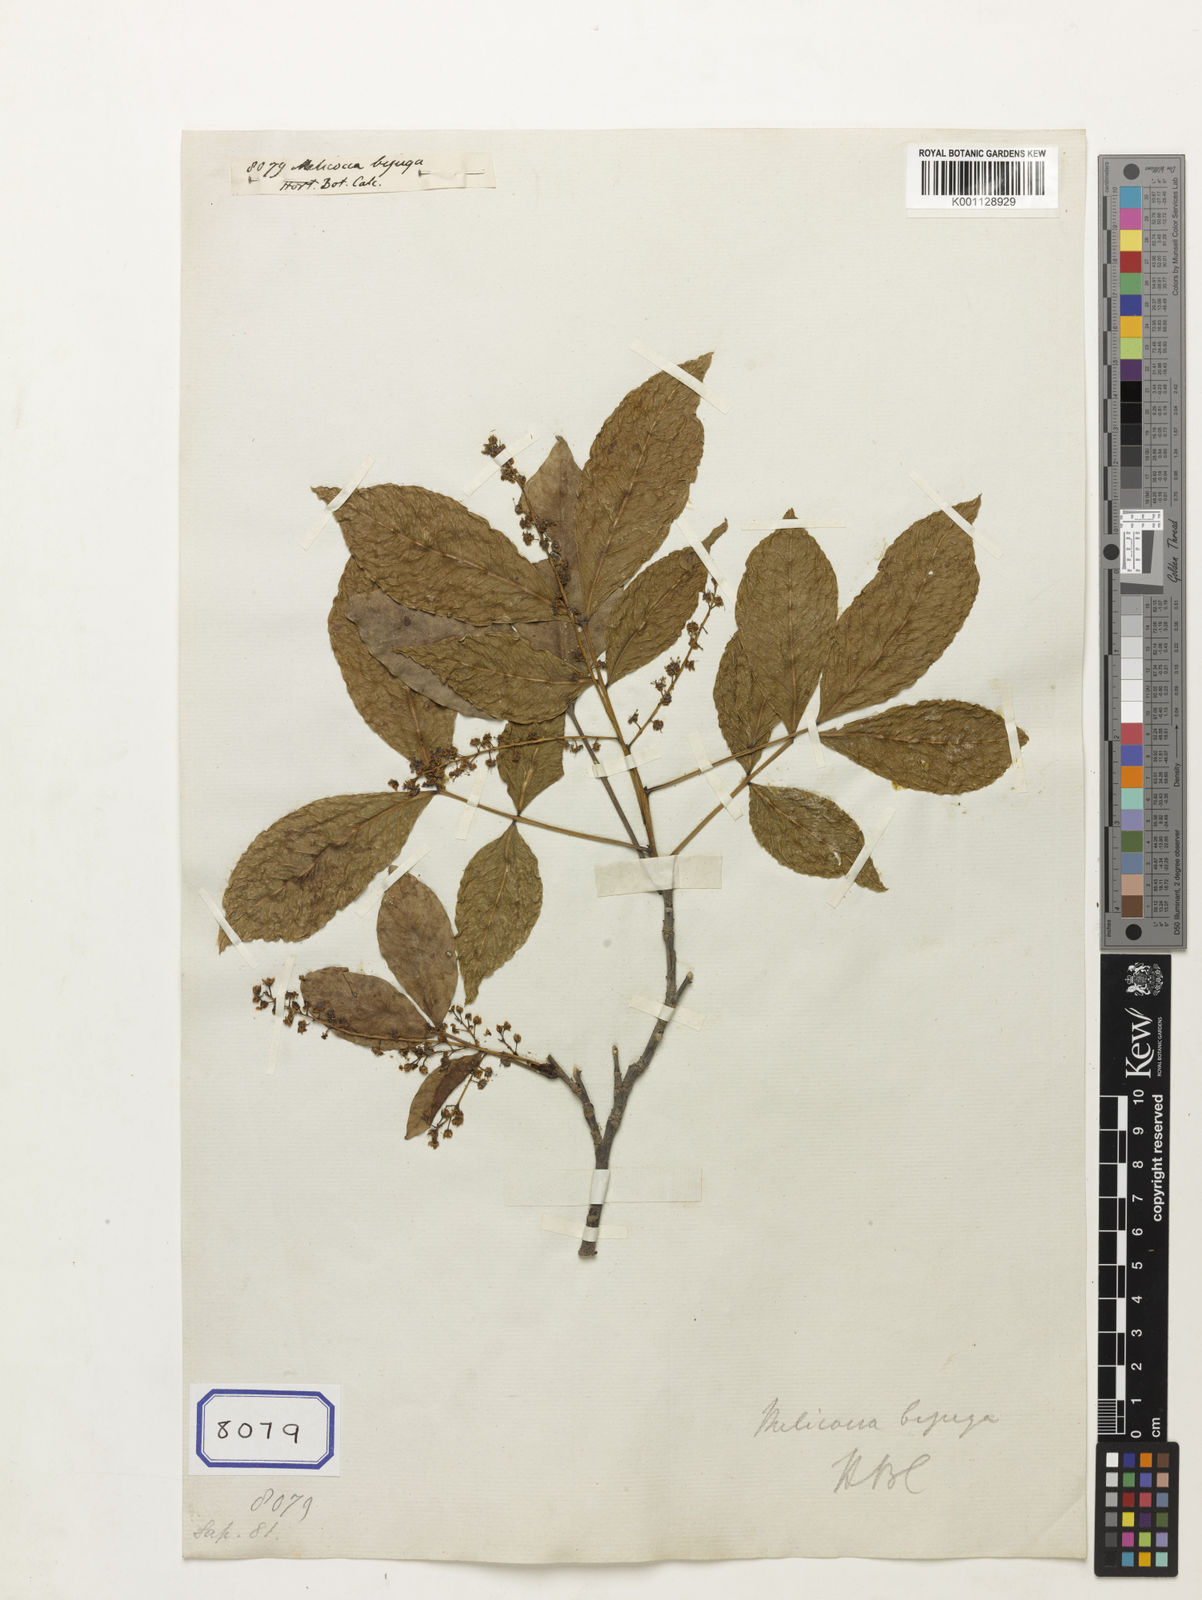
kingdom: Plantae
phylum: Tracheophyta
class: Magnoliopsida
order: Sapindales
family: Sapindaceae
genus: Melicoccus
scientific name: Melicoccus bijugatus
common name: Spanish lime
